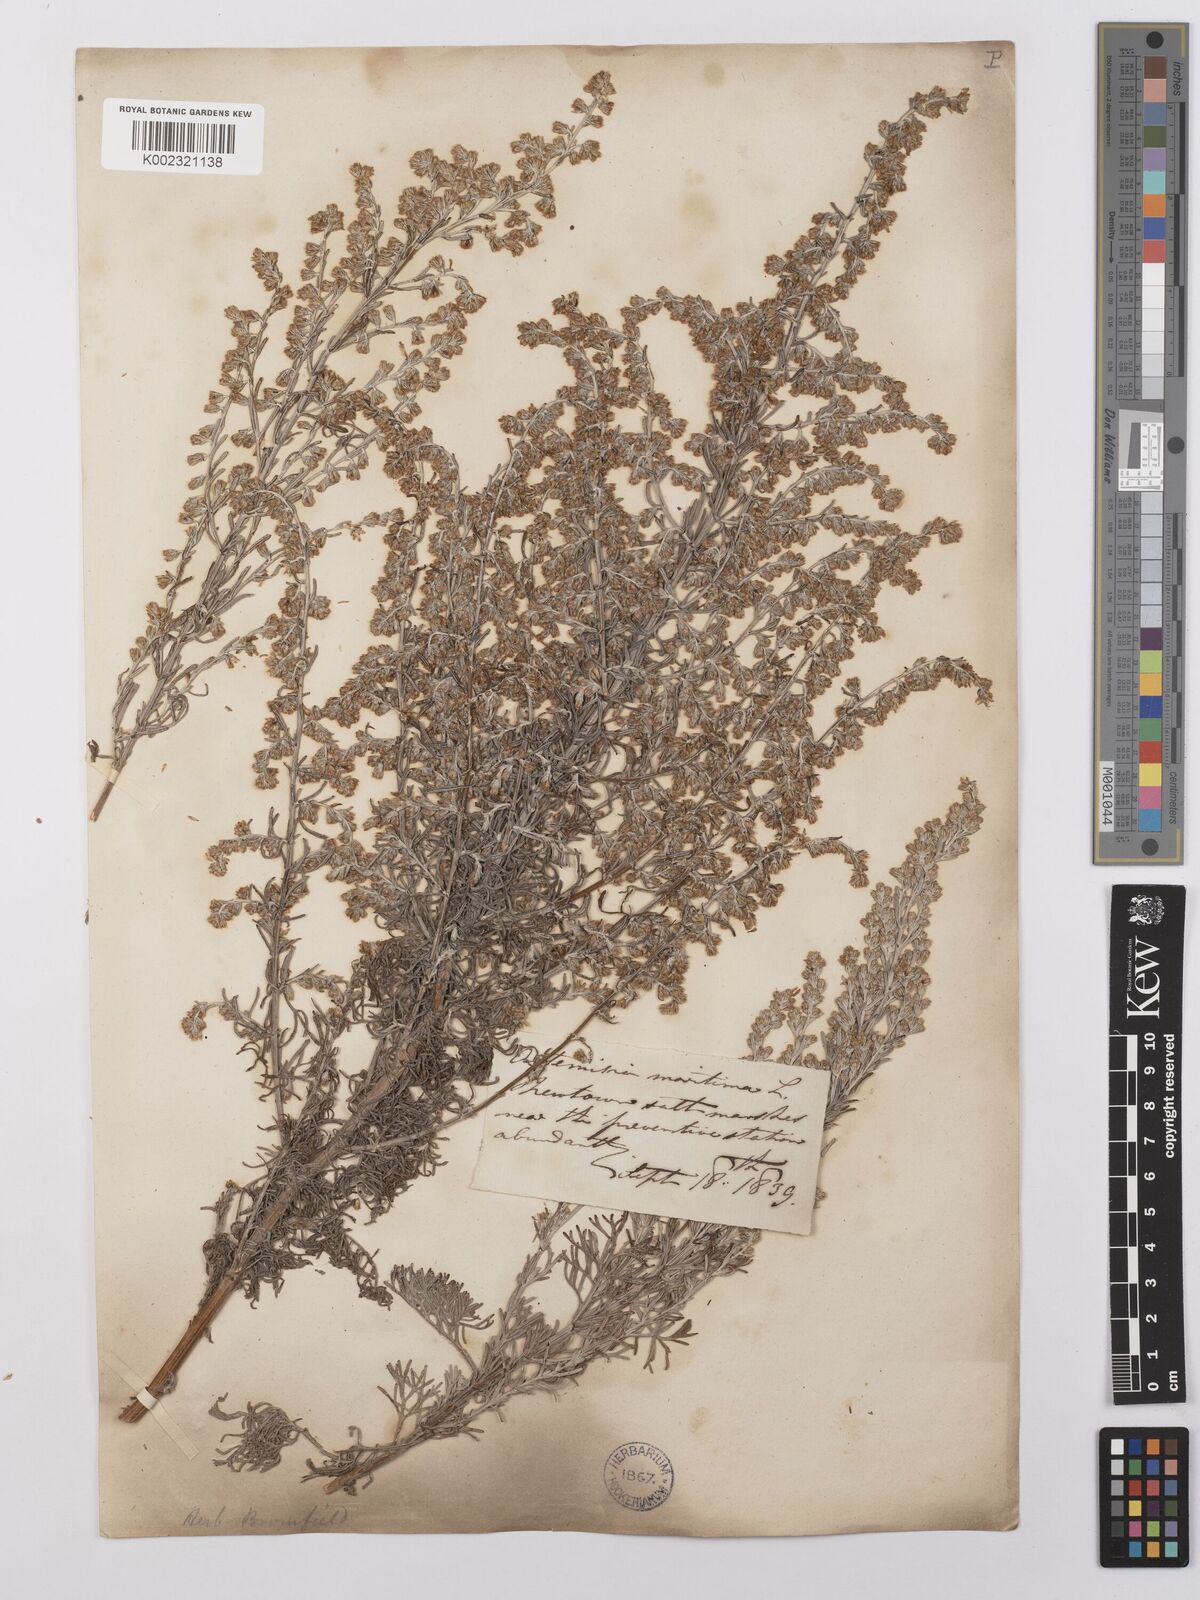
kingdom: Plantae
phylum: Tracheophyta
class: Magnoliopsida
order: Asterales
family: Asteraceae
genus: Artemisia
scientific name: Artemisia maritima
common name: Wormseed
